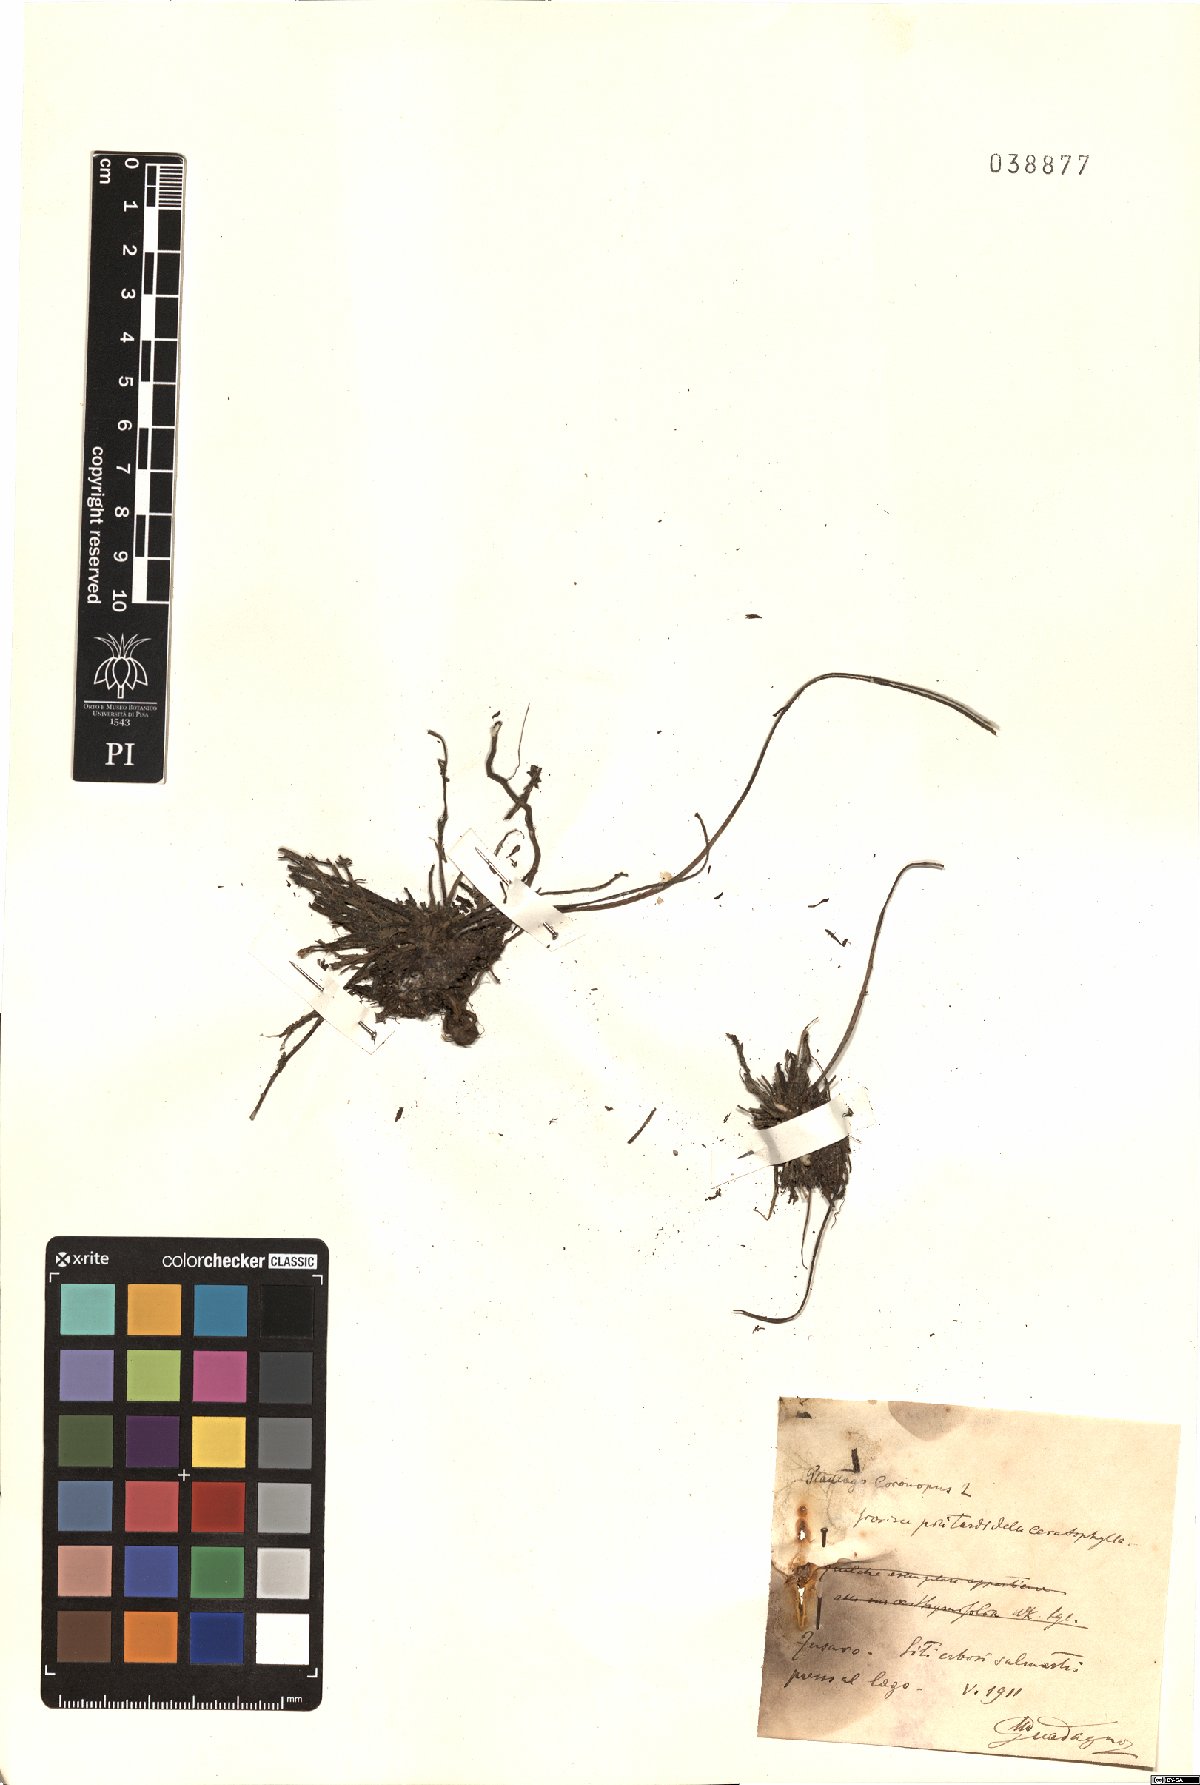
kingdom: Plantae
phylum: Tracheophyta
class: Magnoliopsida
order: Lamiales
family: Plantaginaceae
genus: Plantago
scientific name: Plantago coronopus
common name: Buck's-horn plantain
